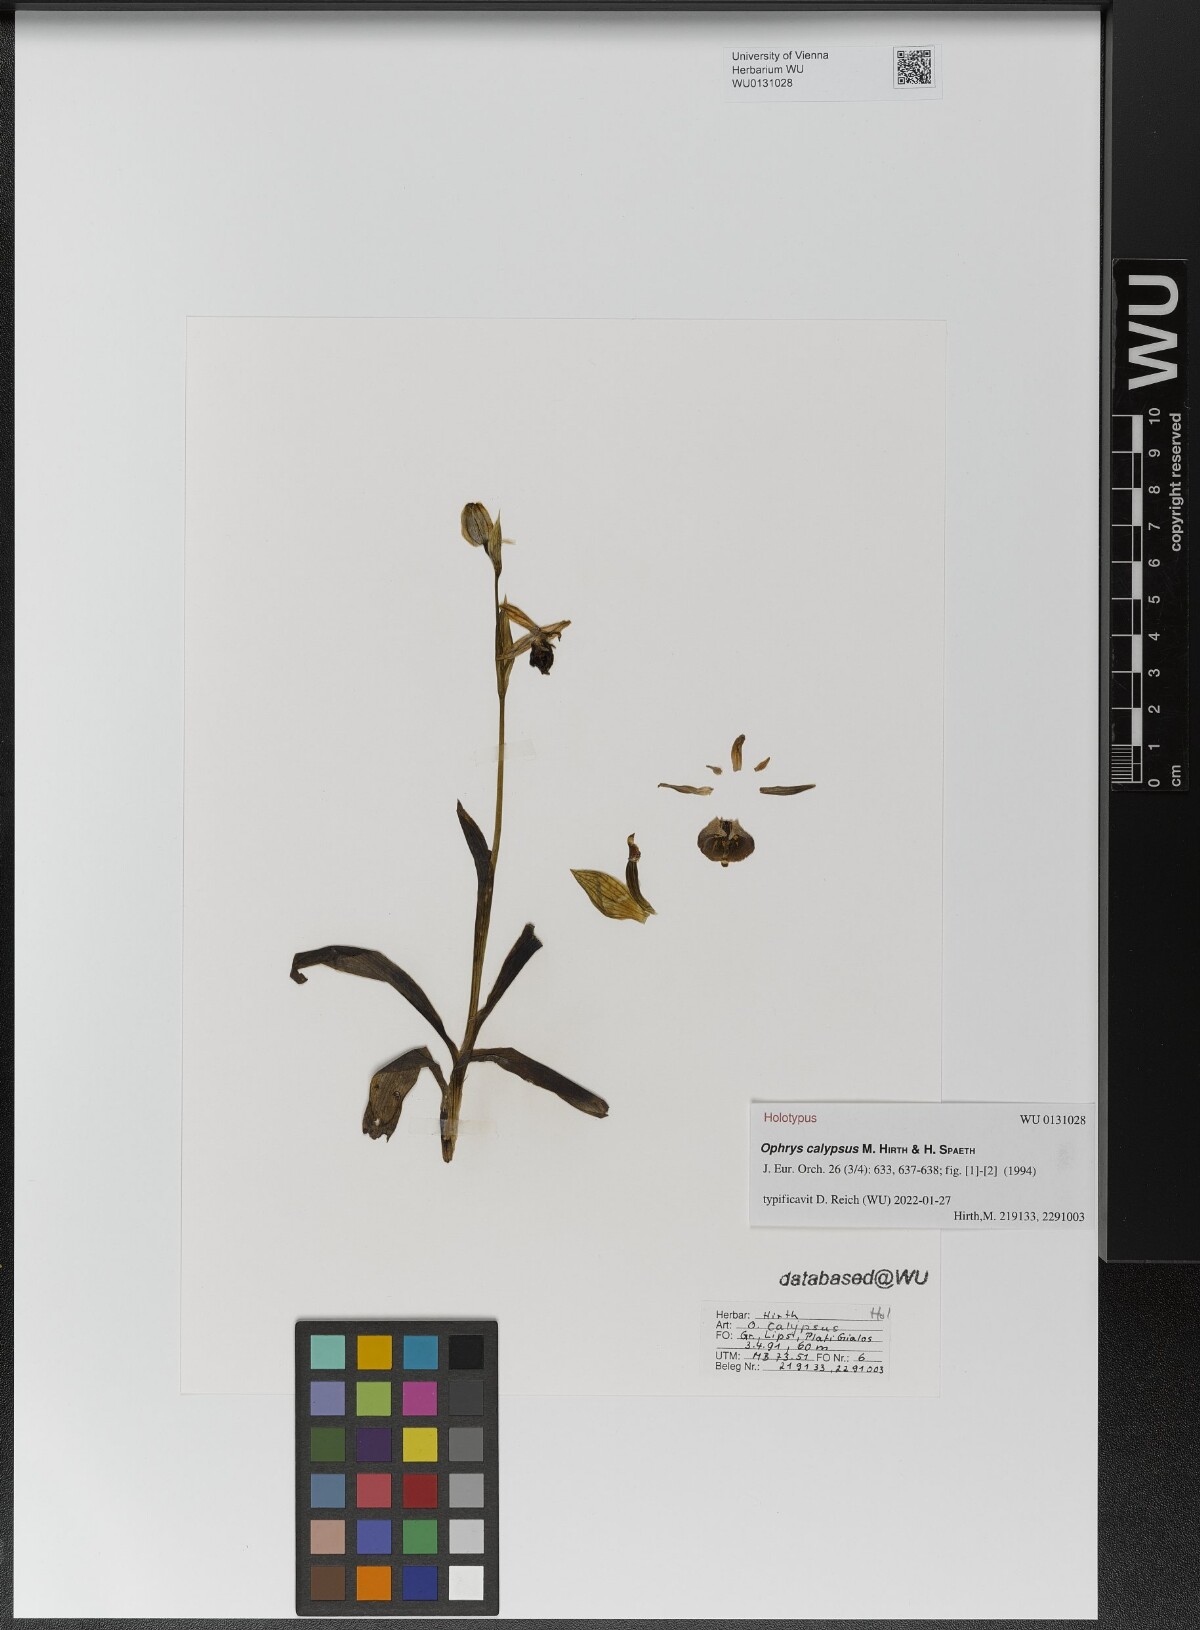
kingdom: Plantae
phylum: Tracheophyta
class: Liliopsida
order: Asparagales
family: Orchidaceae
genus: Ophrys
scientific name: Ophrys vicina
